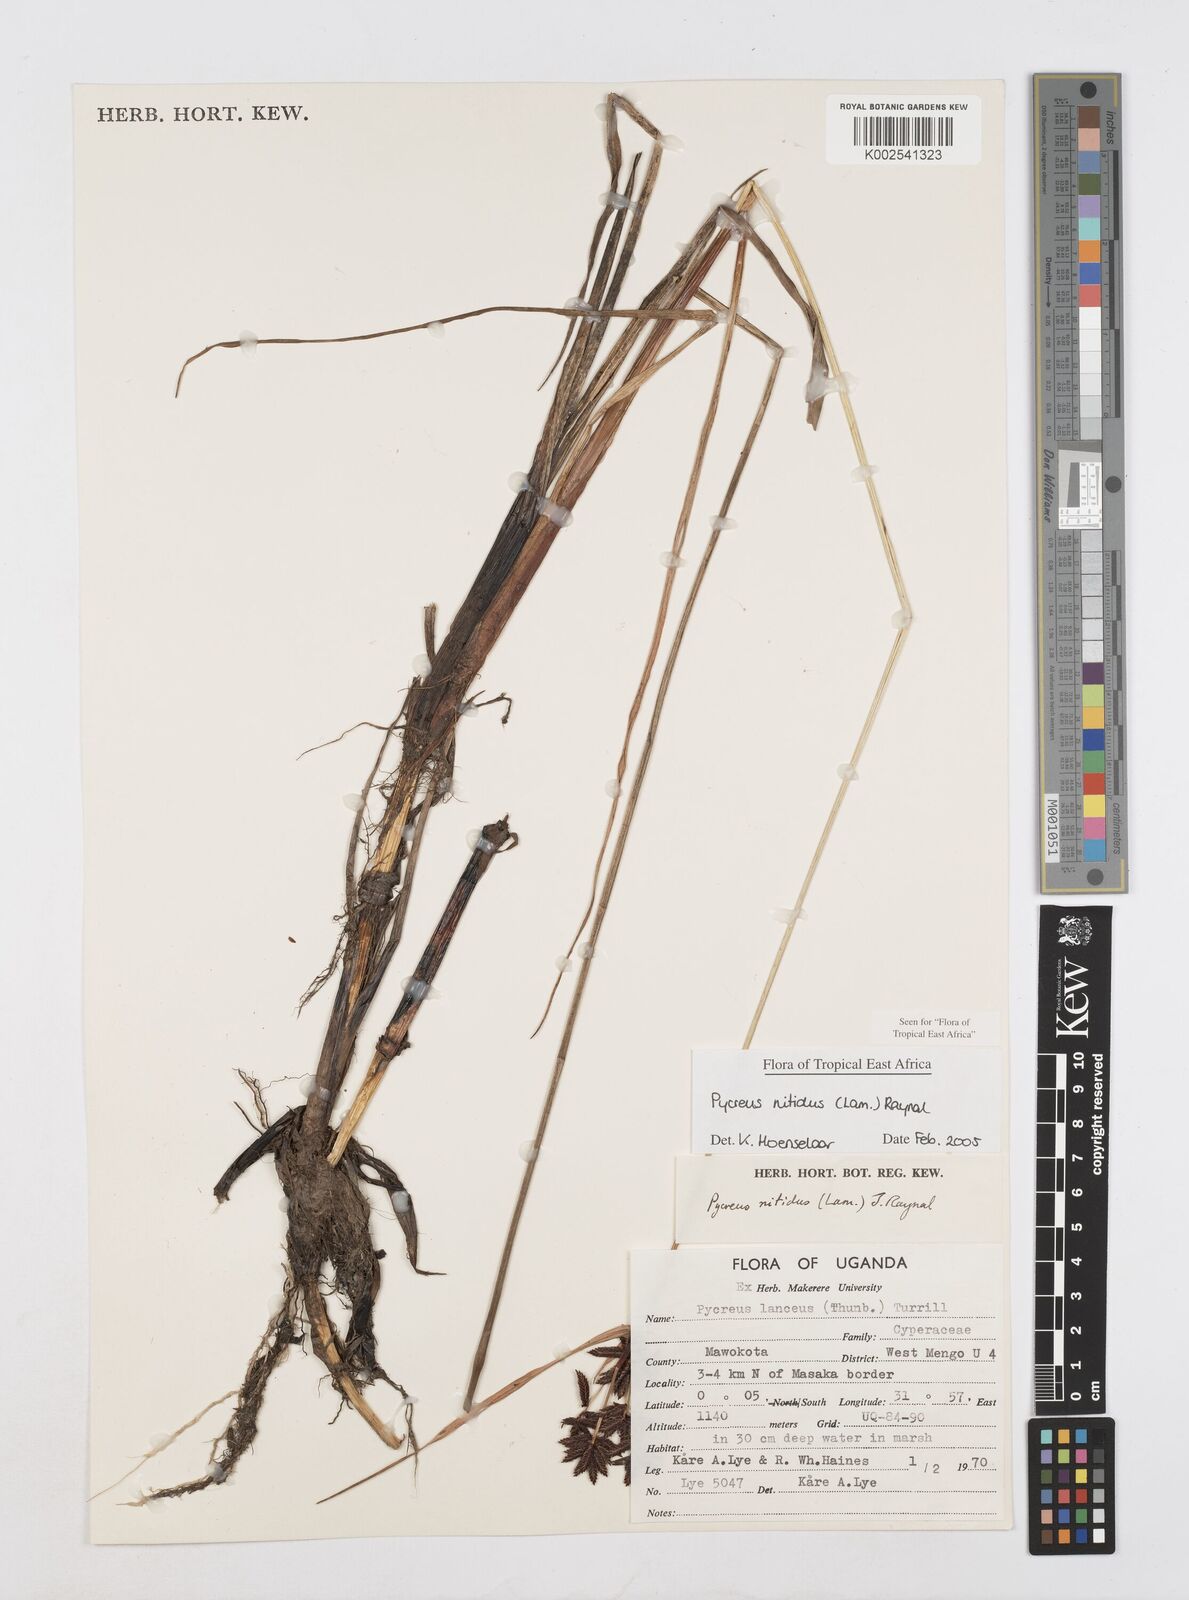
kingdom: Plantae
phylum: Tracheophyta
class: Liliopsida
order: Poales
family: Cyperaceae
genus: Cyperus
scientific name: Cyperus nitidus
